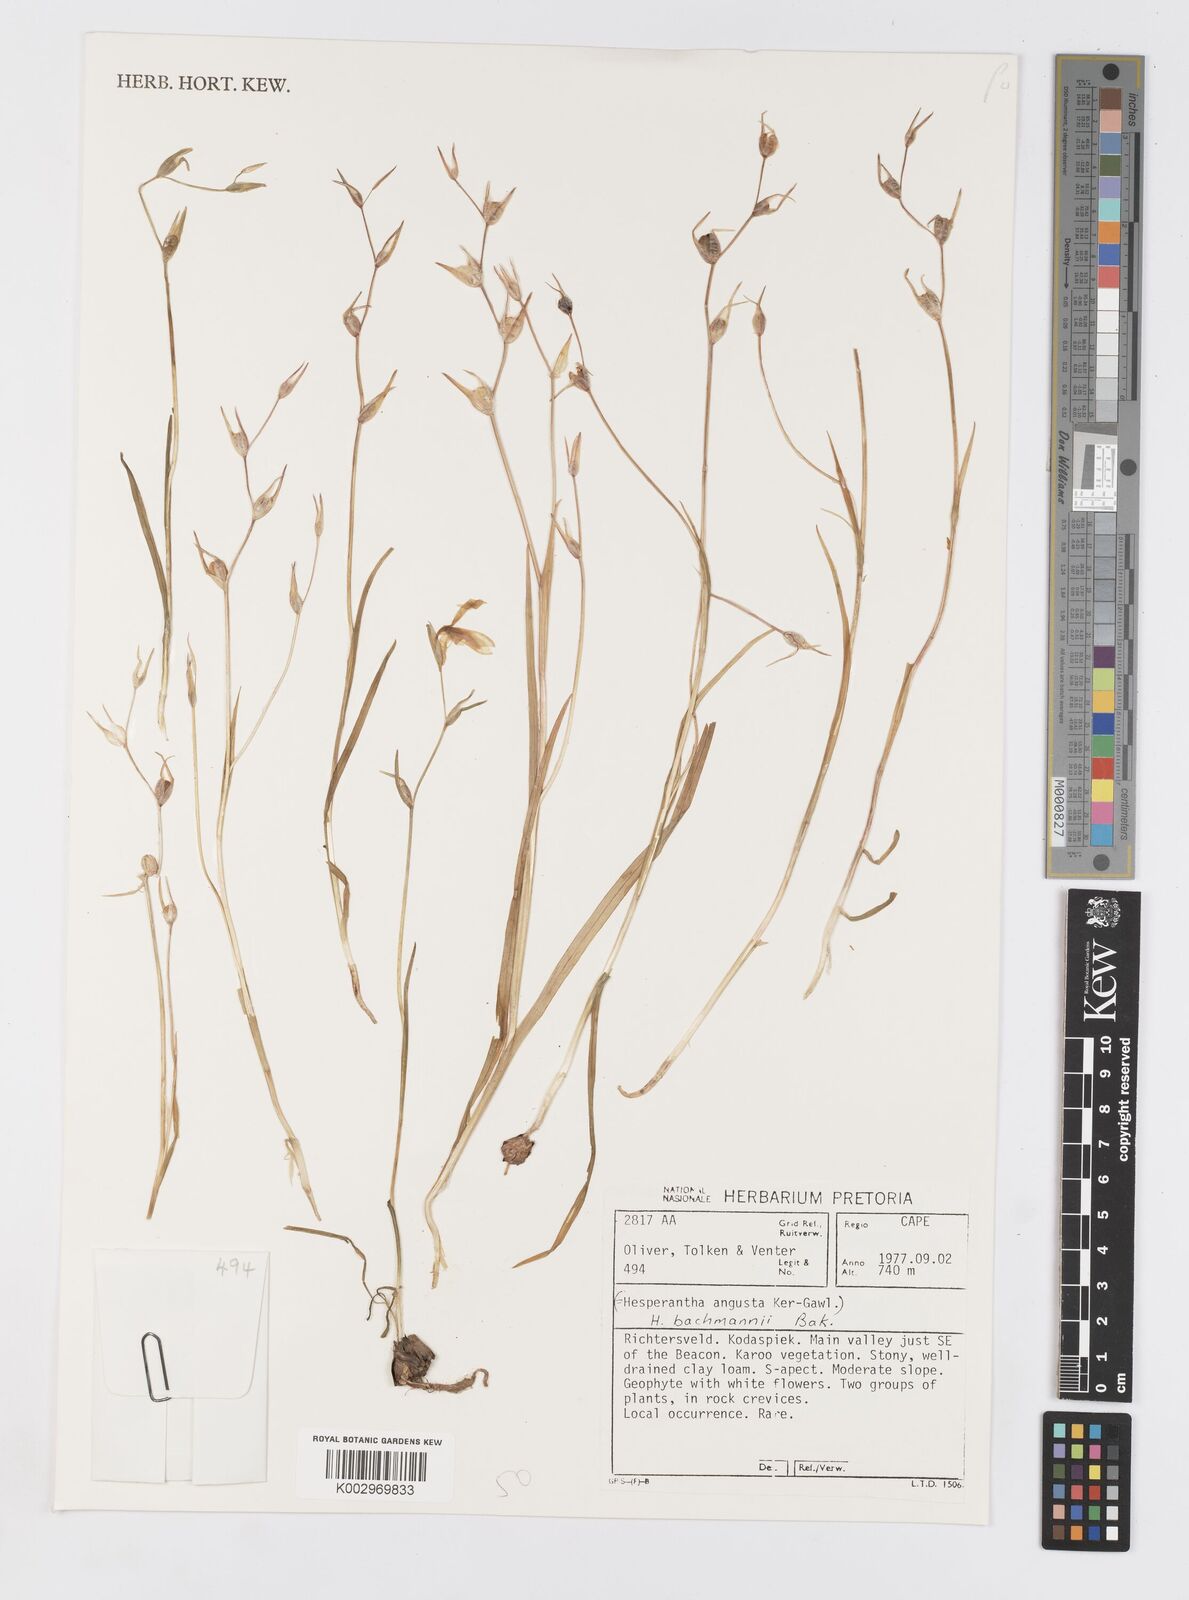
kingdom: Plantae
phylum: Tracheophyta
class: Liliopsida
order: Asparagales
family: Iridaceae
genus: Hesperantha
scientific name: Hesperantha bachmannii
